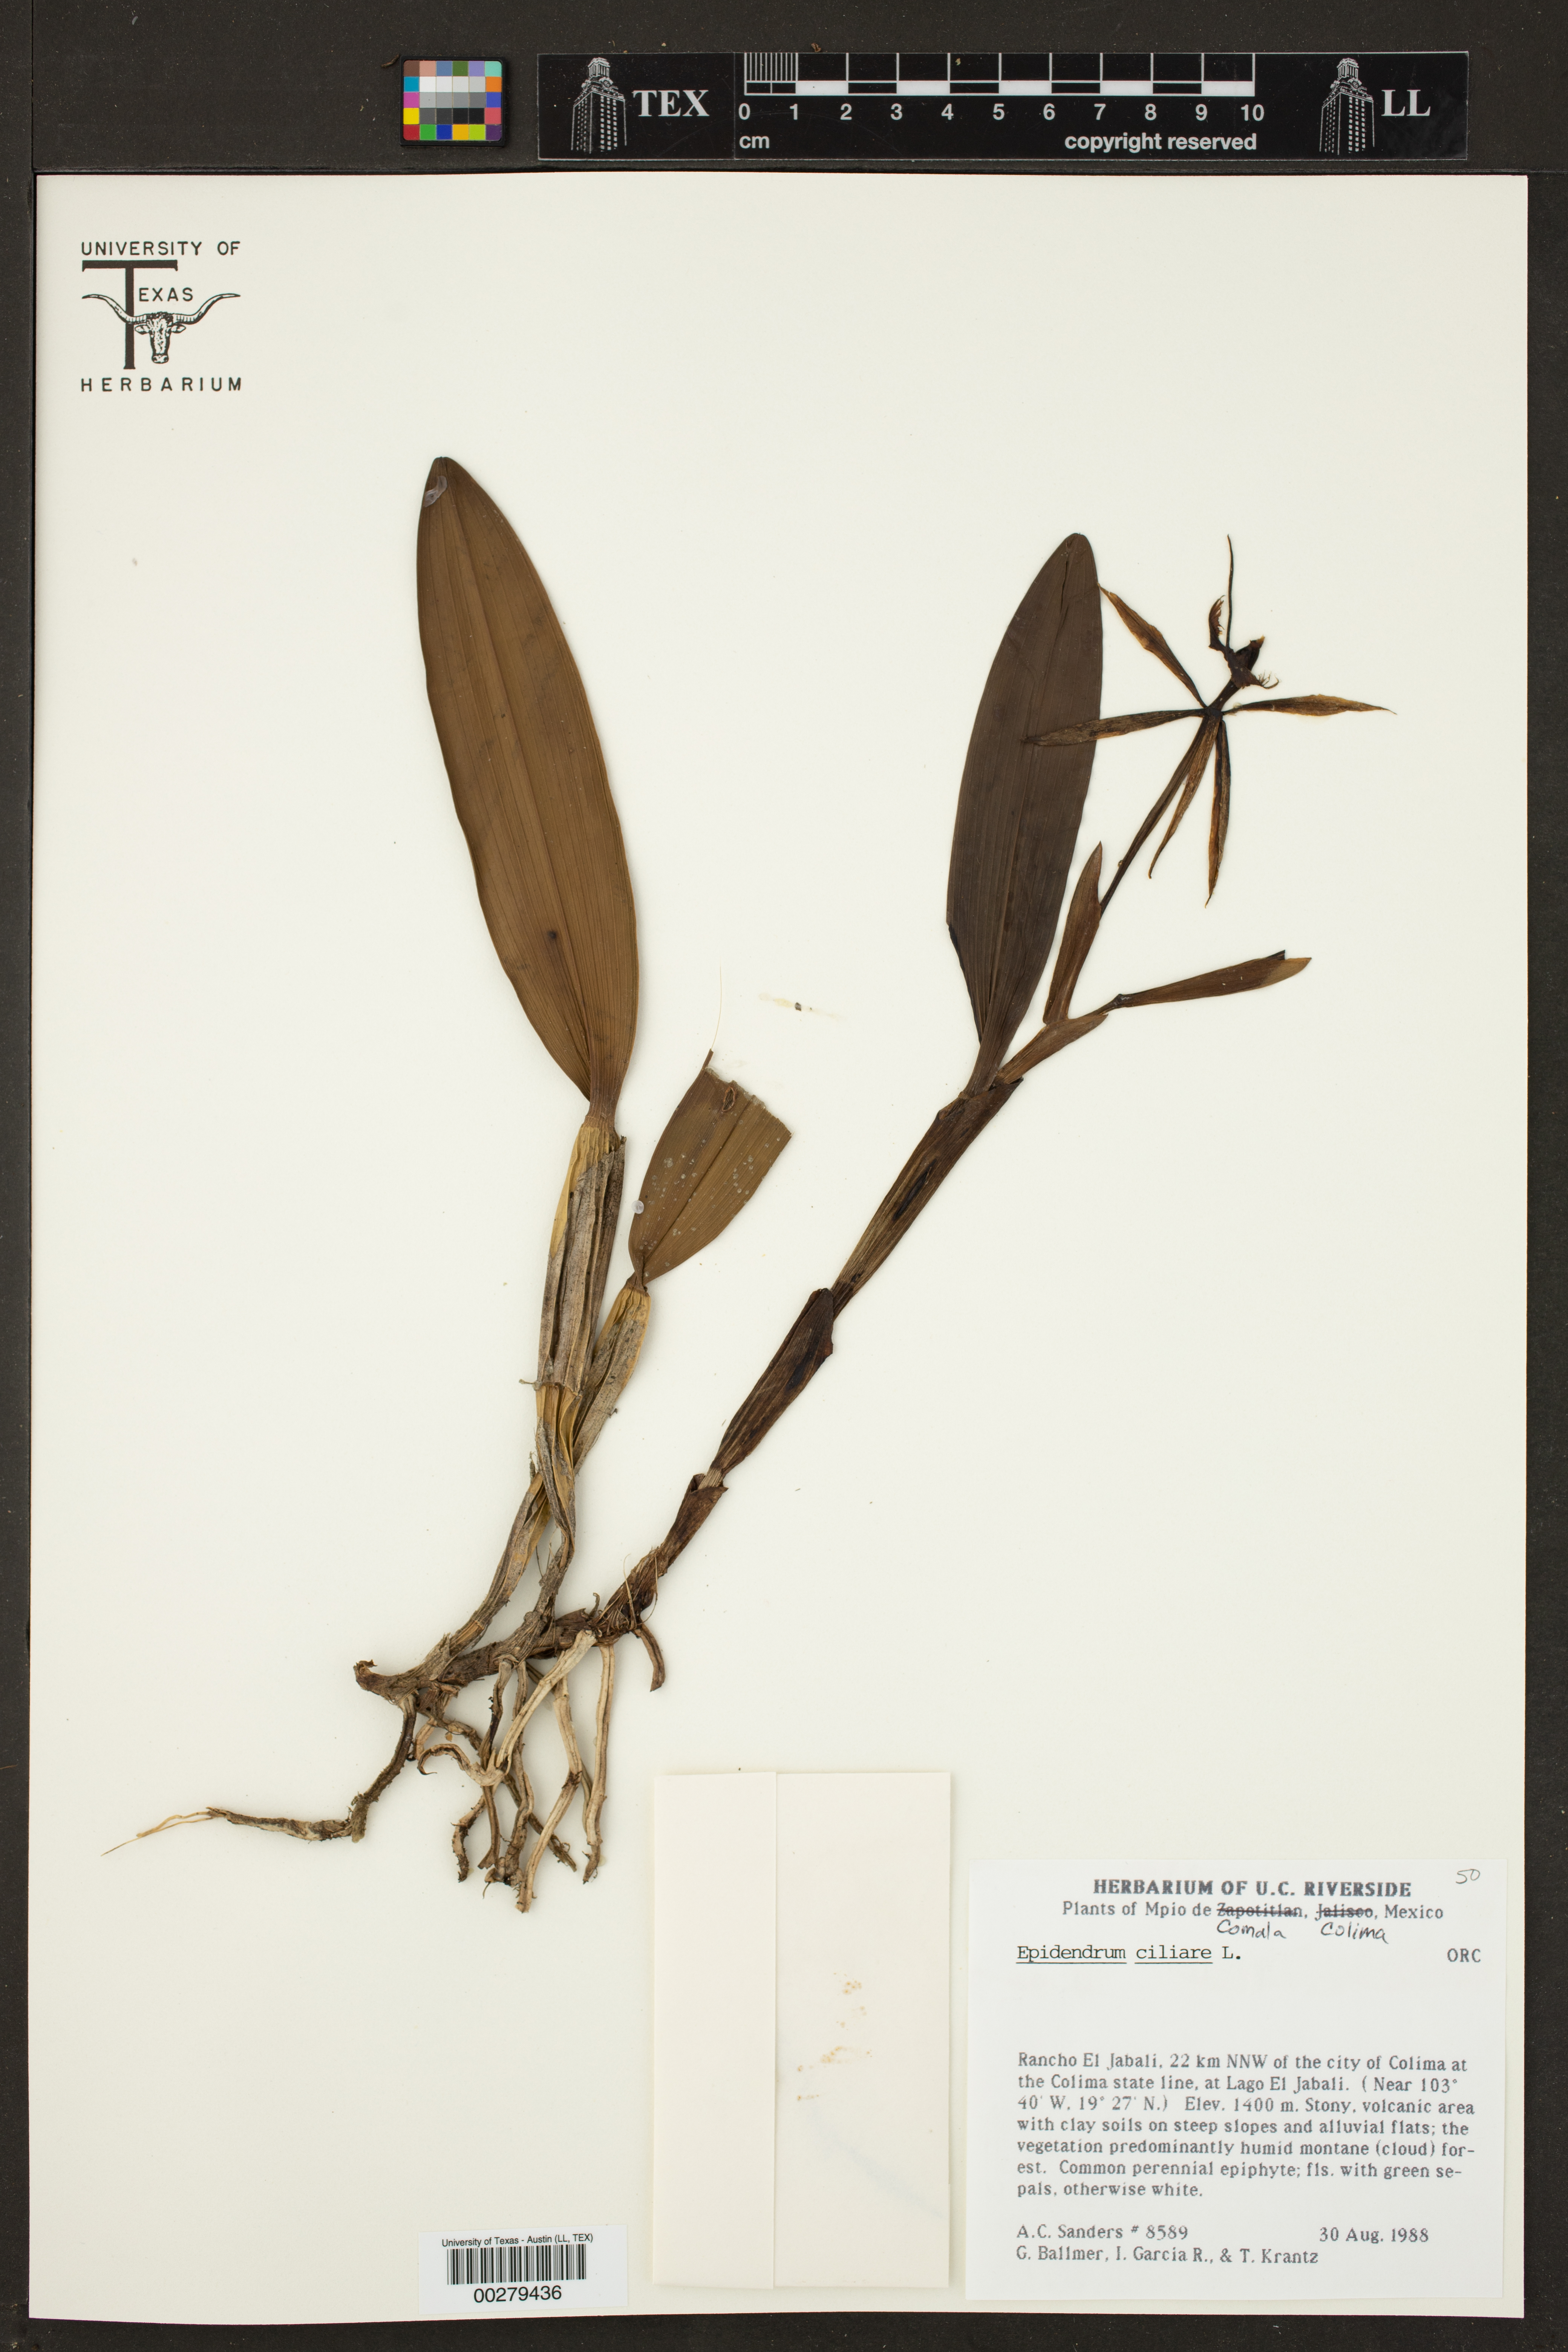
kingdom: Plantae
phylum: Tracheophyta
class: Liliopsida
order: Asparagales
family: Orchidaceae
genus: Epidendrum
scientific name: Epidendrum ciliare
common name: Eyelash orchid
